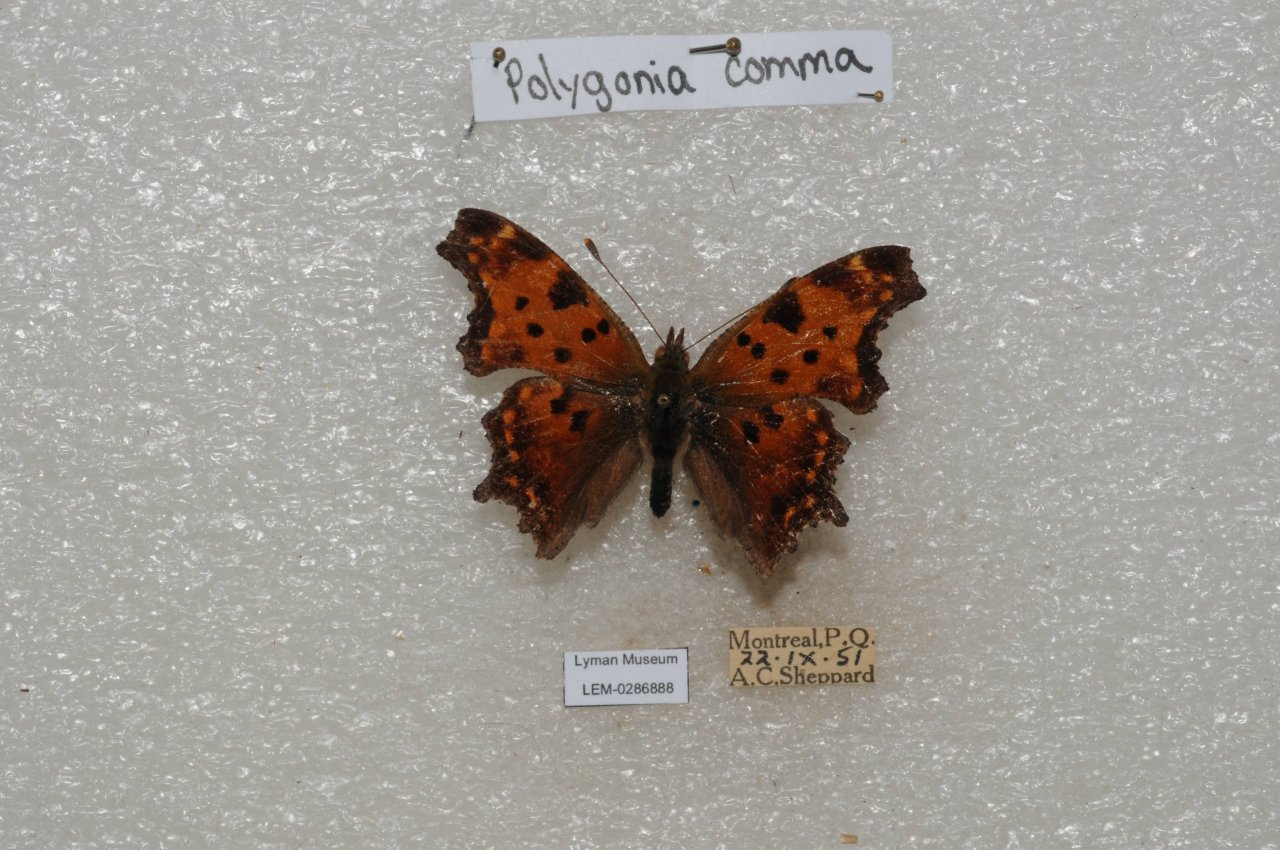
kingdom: Animalia
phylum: Arthropoda
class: Insecta
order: Lepidoptera
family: Nymphalidae
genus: Polygonia
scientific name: Polygonia comma
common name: Eastern Comma
